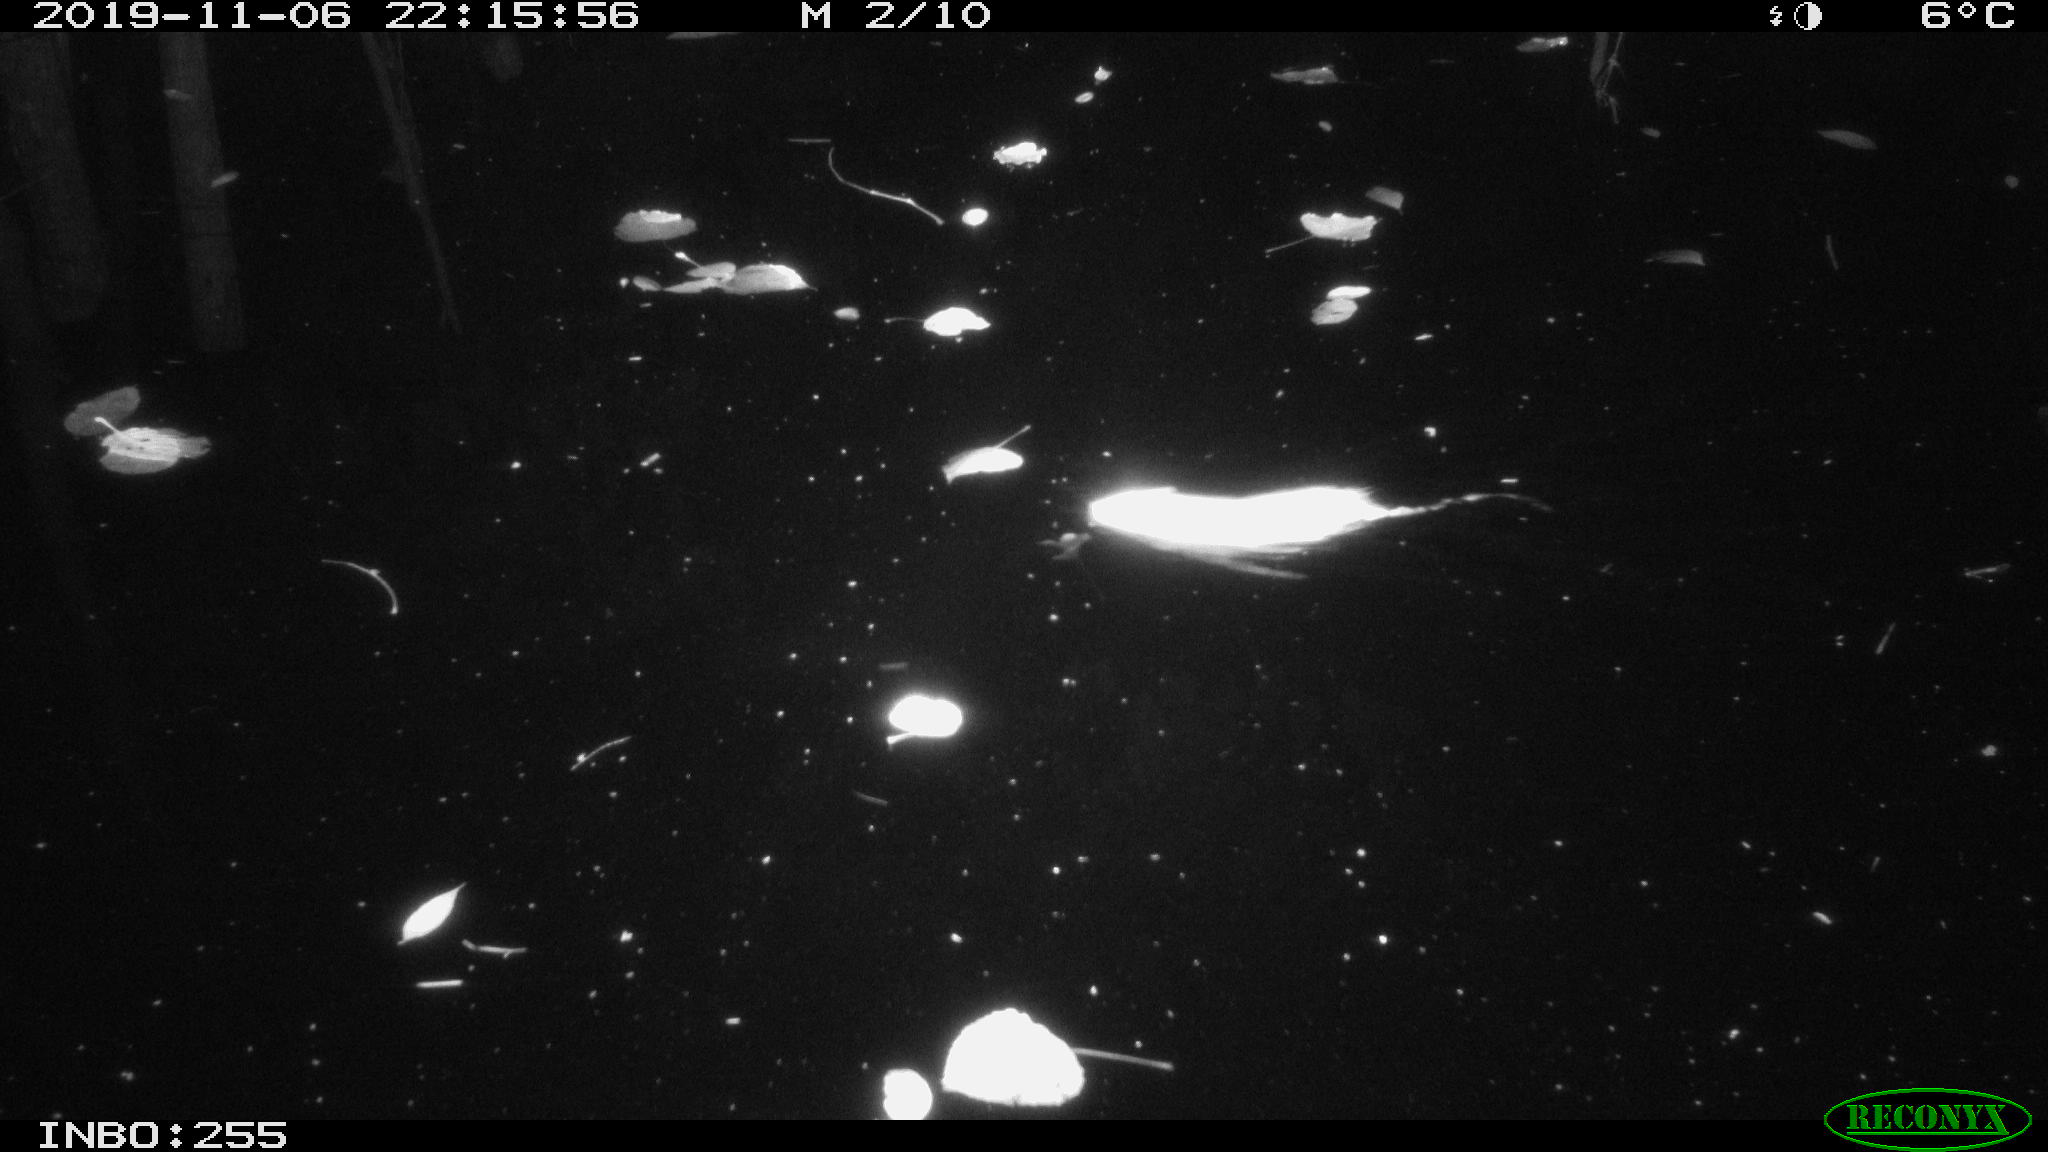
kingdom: Animalia
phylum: Chordata
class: Mammalia
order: Rodentia
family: Cricetidae
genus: Ondatra
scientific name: Ondatra zibethicus
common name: Muskrat
